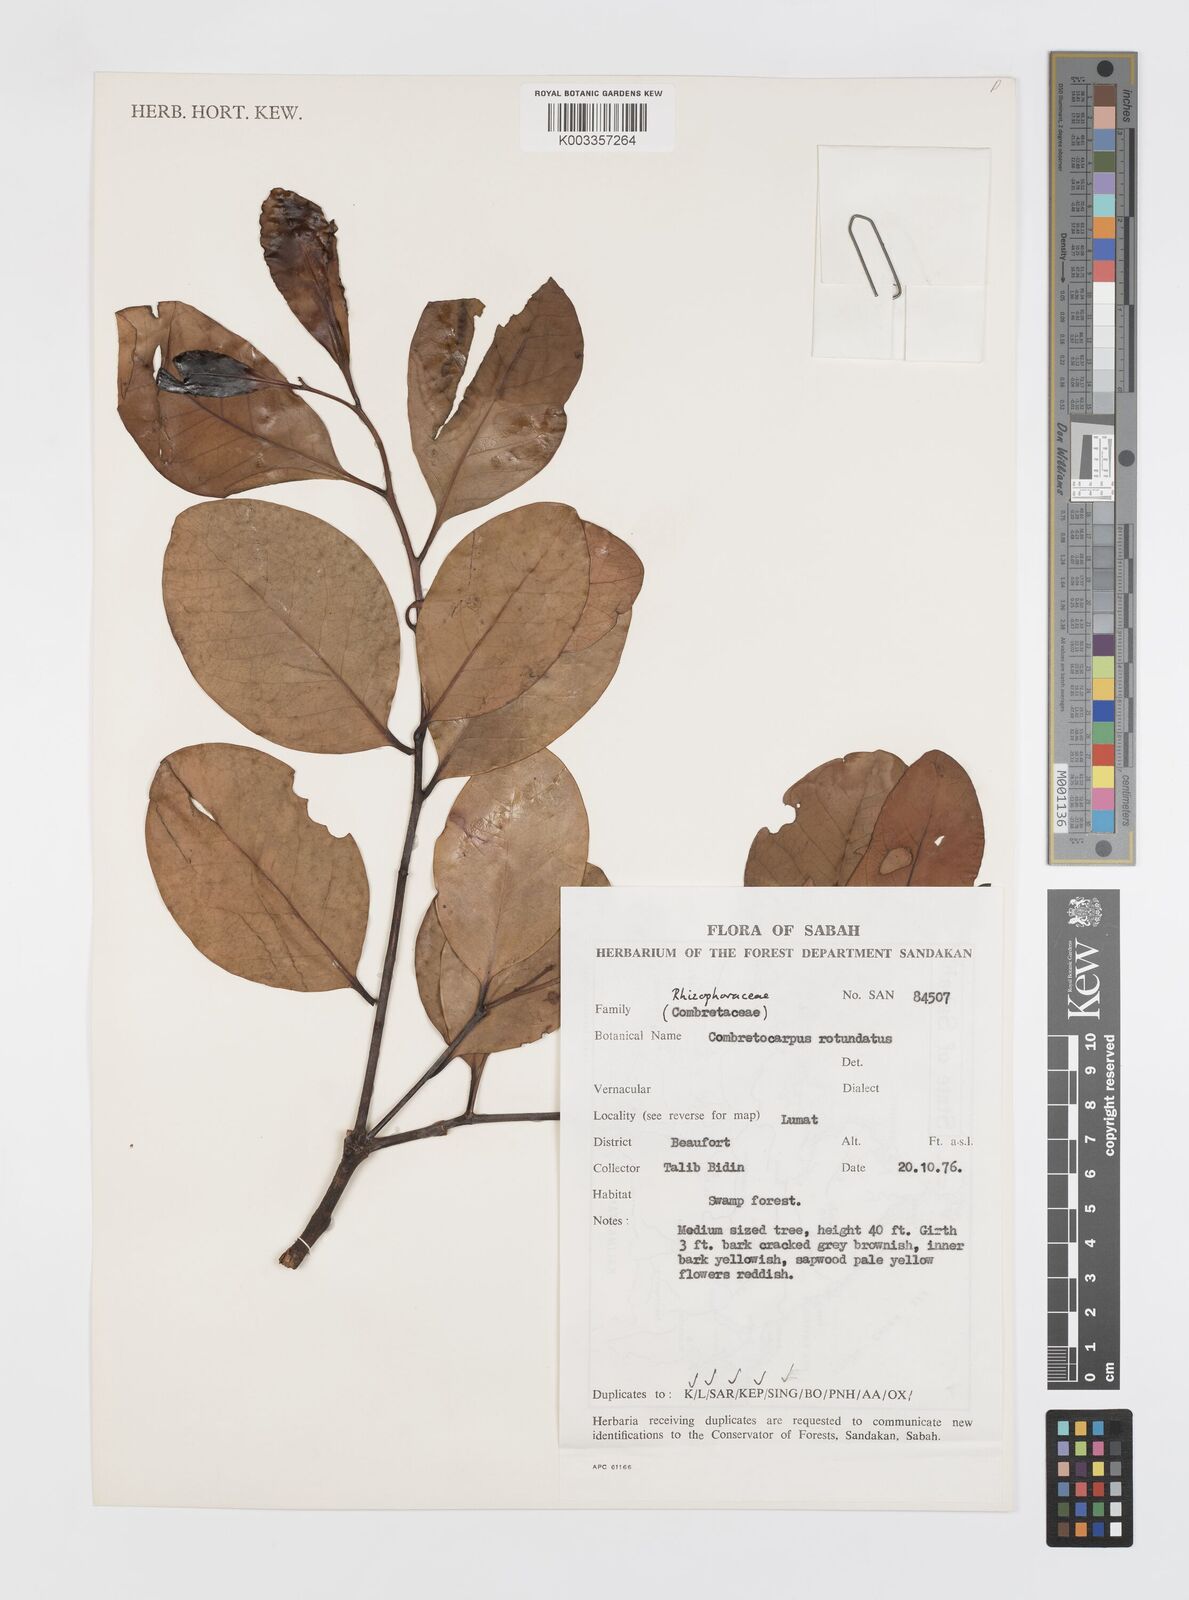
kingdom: Plantae
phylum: Tracheophyta
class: Magnoliopsida
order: Cucurbitales
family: Anisophylleaceae
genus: Combretocarpus
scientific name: Combretocarpus rotundatus
